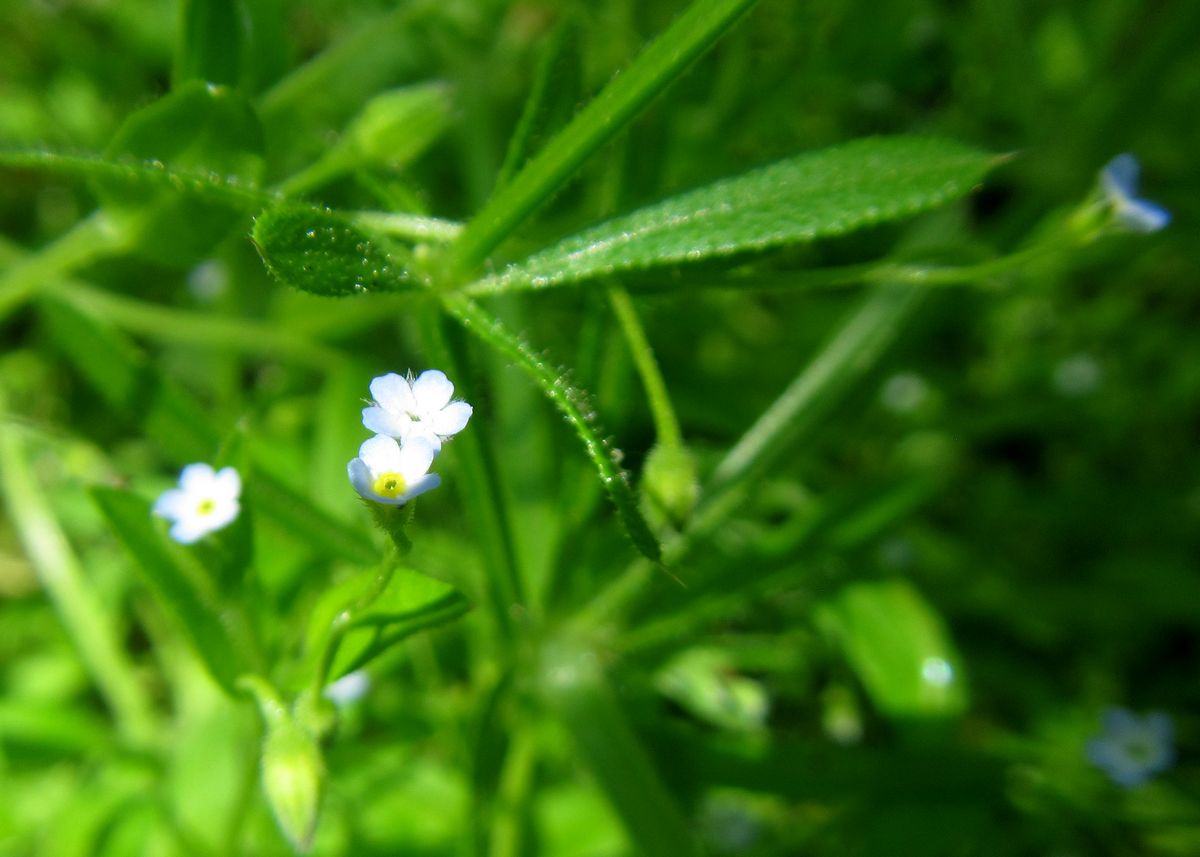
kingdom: Plantae
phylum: Tracheophyta
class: Magnoliopsida
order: Boraginales
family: Boraginaceae
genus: Myosotis
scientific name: Myosotis
